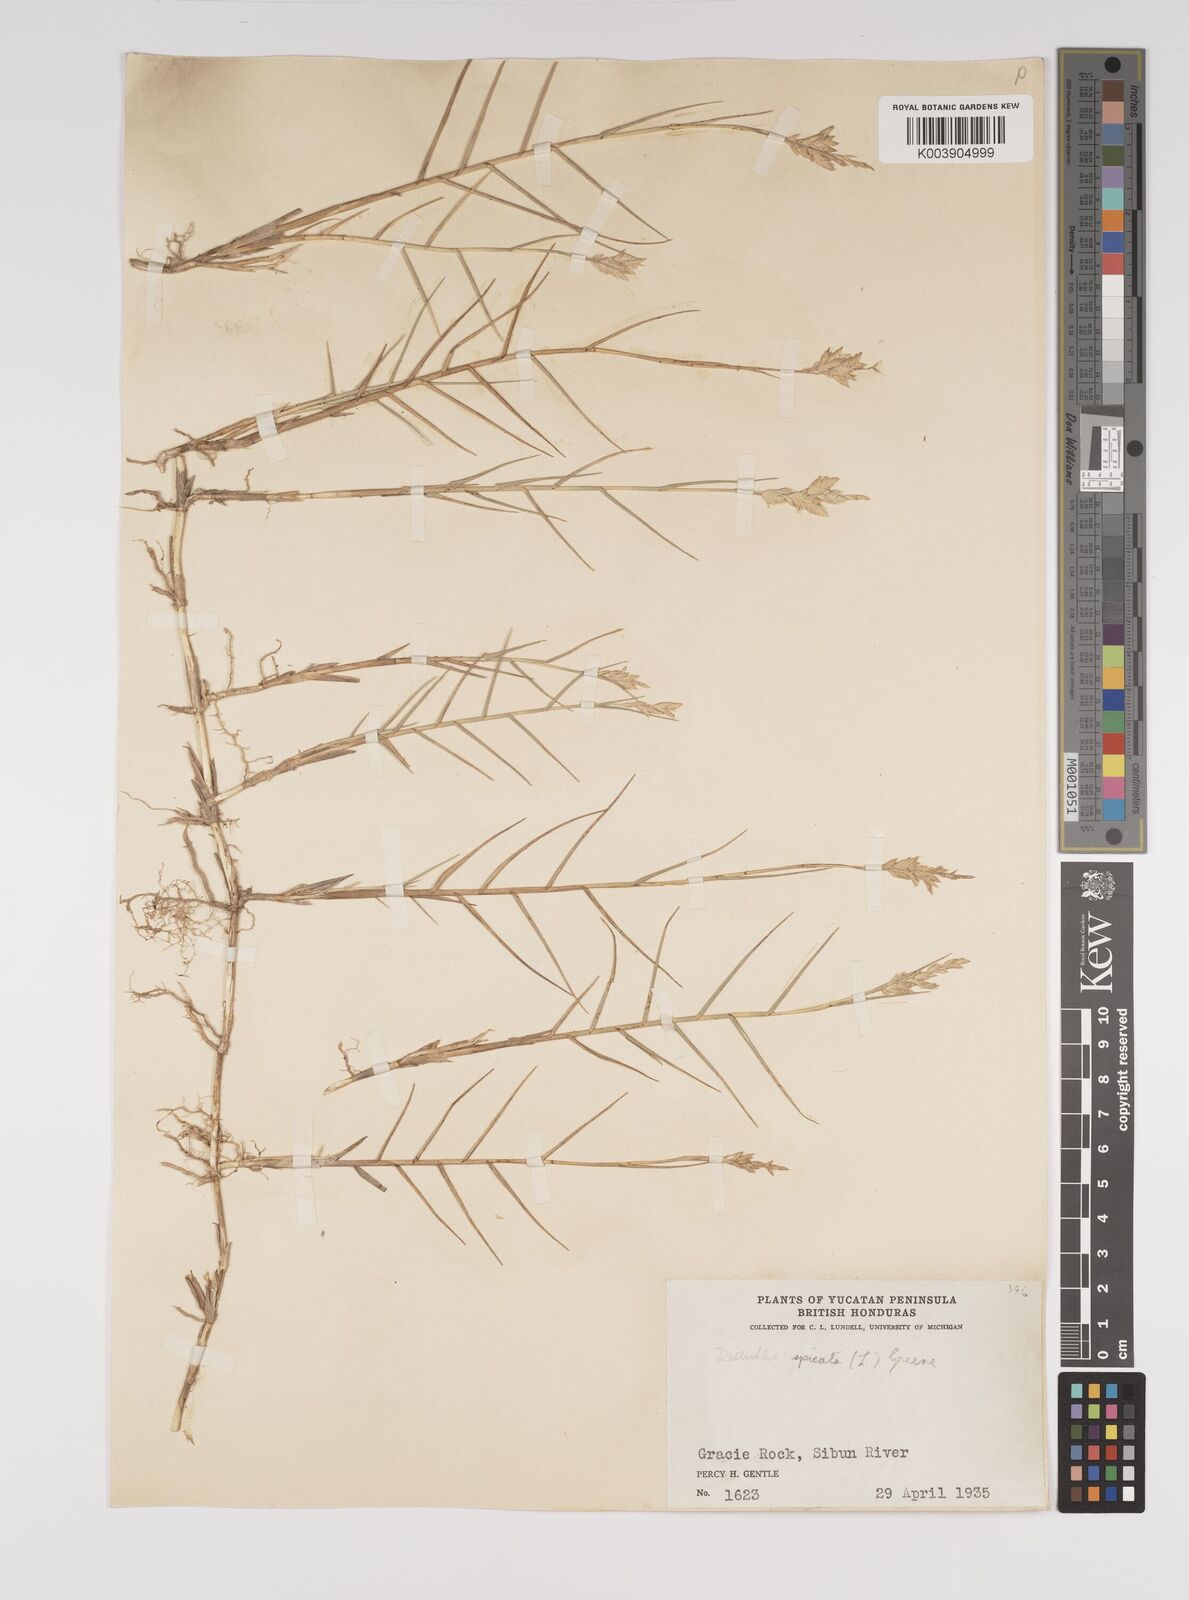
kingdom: Plantae
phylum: Tracheophyta
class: Liliopsida
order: Poales
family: Poaceae
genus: Distichlis
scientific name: Distichlis spicata
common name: Saltgrass
